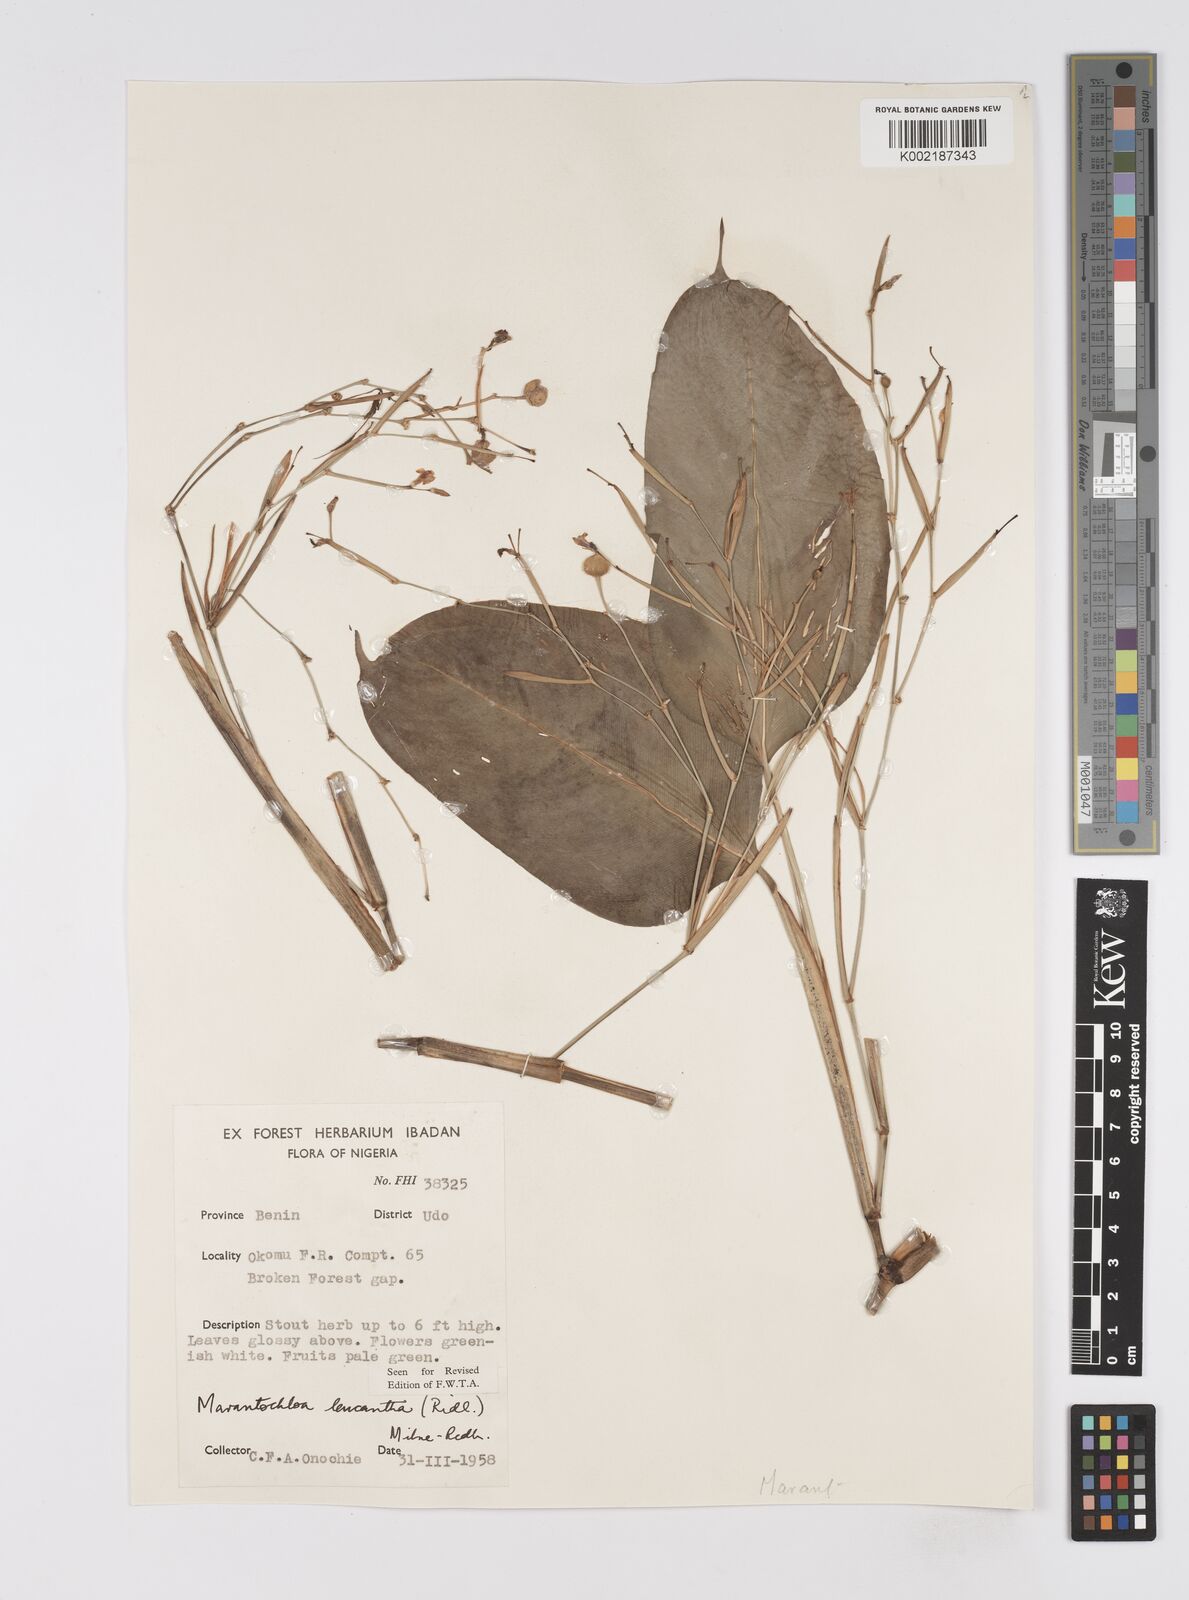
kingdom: Plantae
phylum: Tracheophyta
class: Liliopsida
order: Zingiberales
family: Marantaceae
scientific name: Marantaceae
